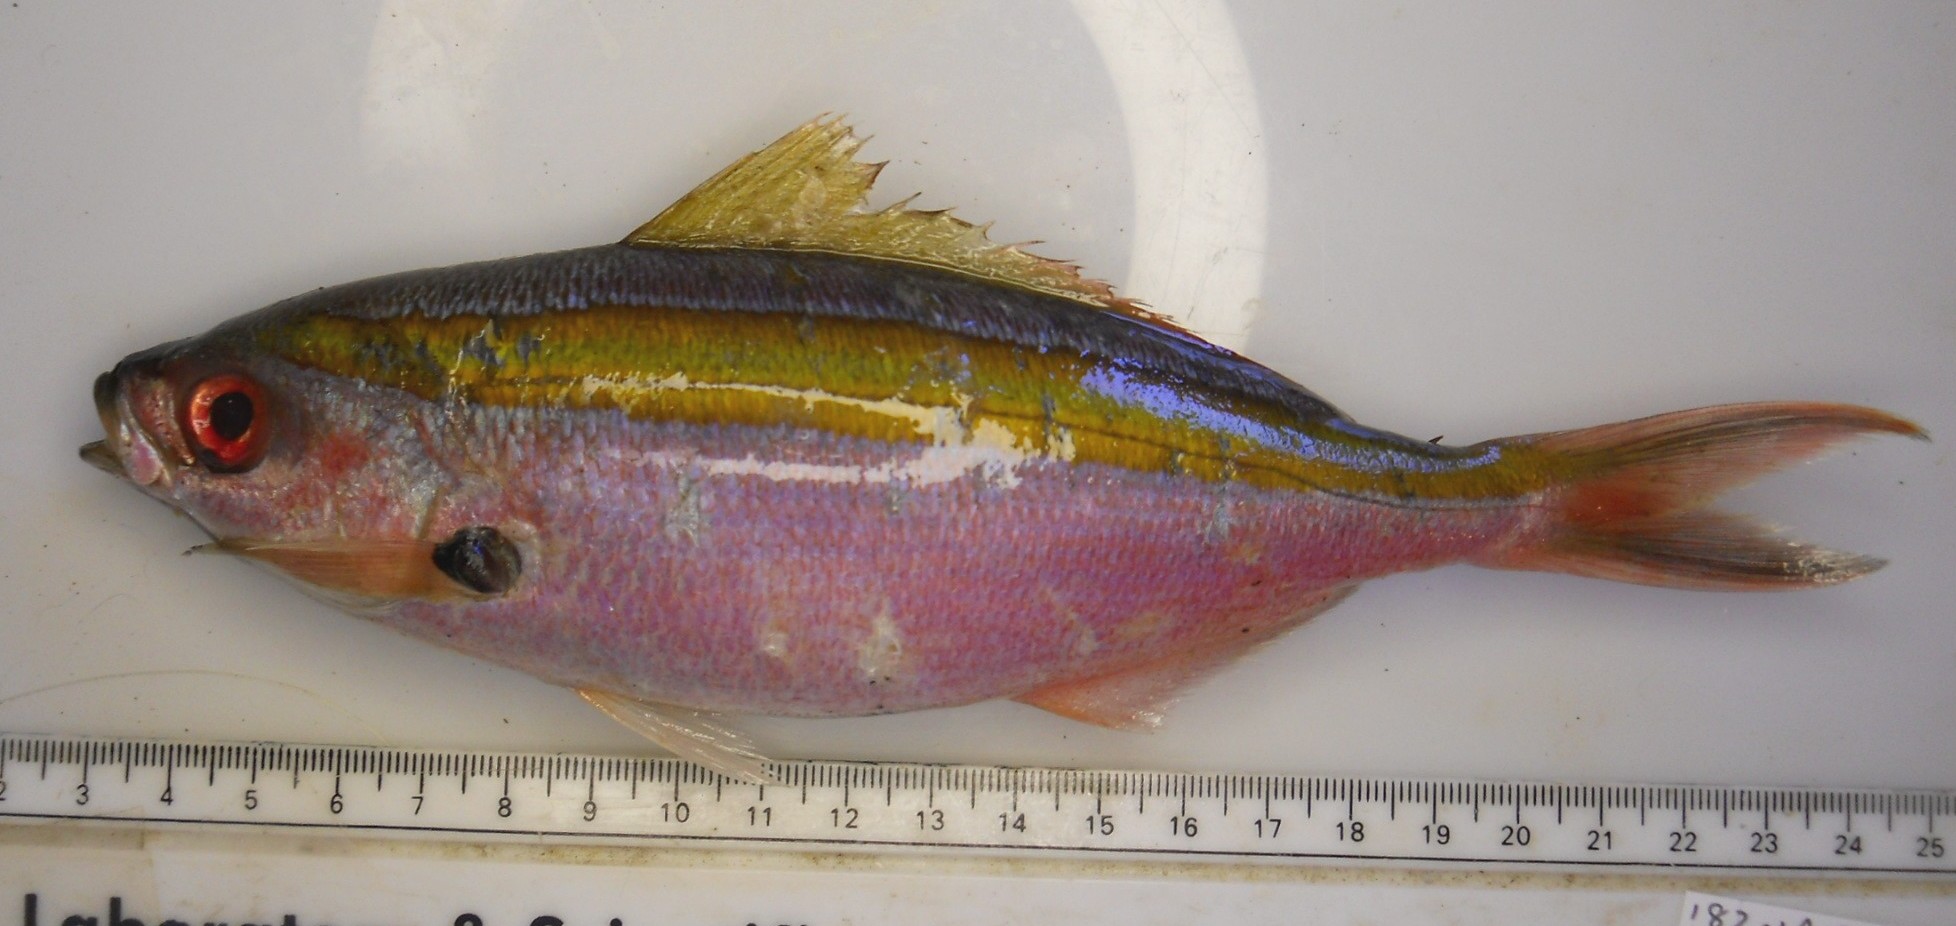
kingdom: Animalia
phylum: Chordata
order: Perciformes
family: Caesionidae
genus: Caesio
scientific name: Caesio caerulaurea
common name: Blue and gold fusilier
